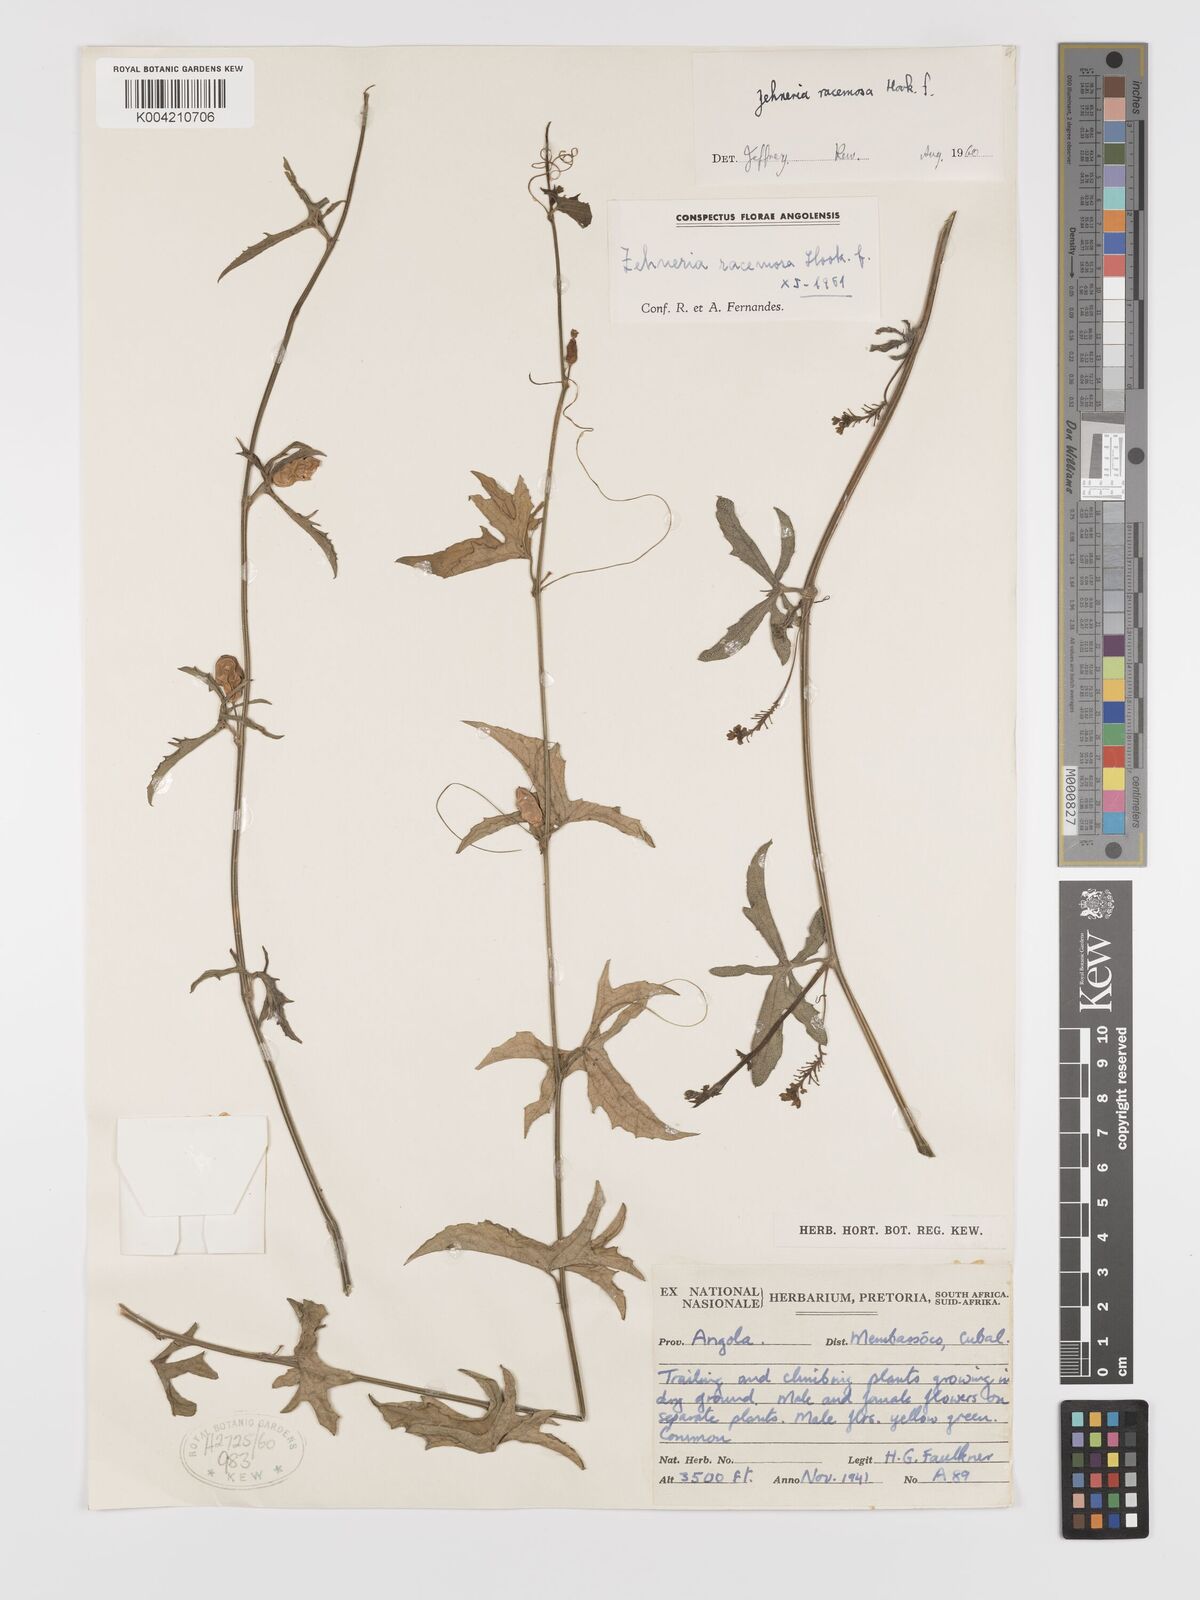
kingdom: Plantae
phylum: Tracheophyta
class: Magnoliopsida
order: Cucurbitales
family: Cucurbitaceae
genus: Zehneria
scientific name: Zehneria racemosa
